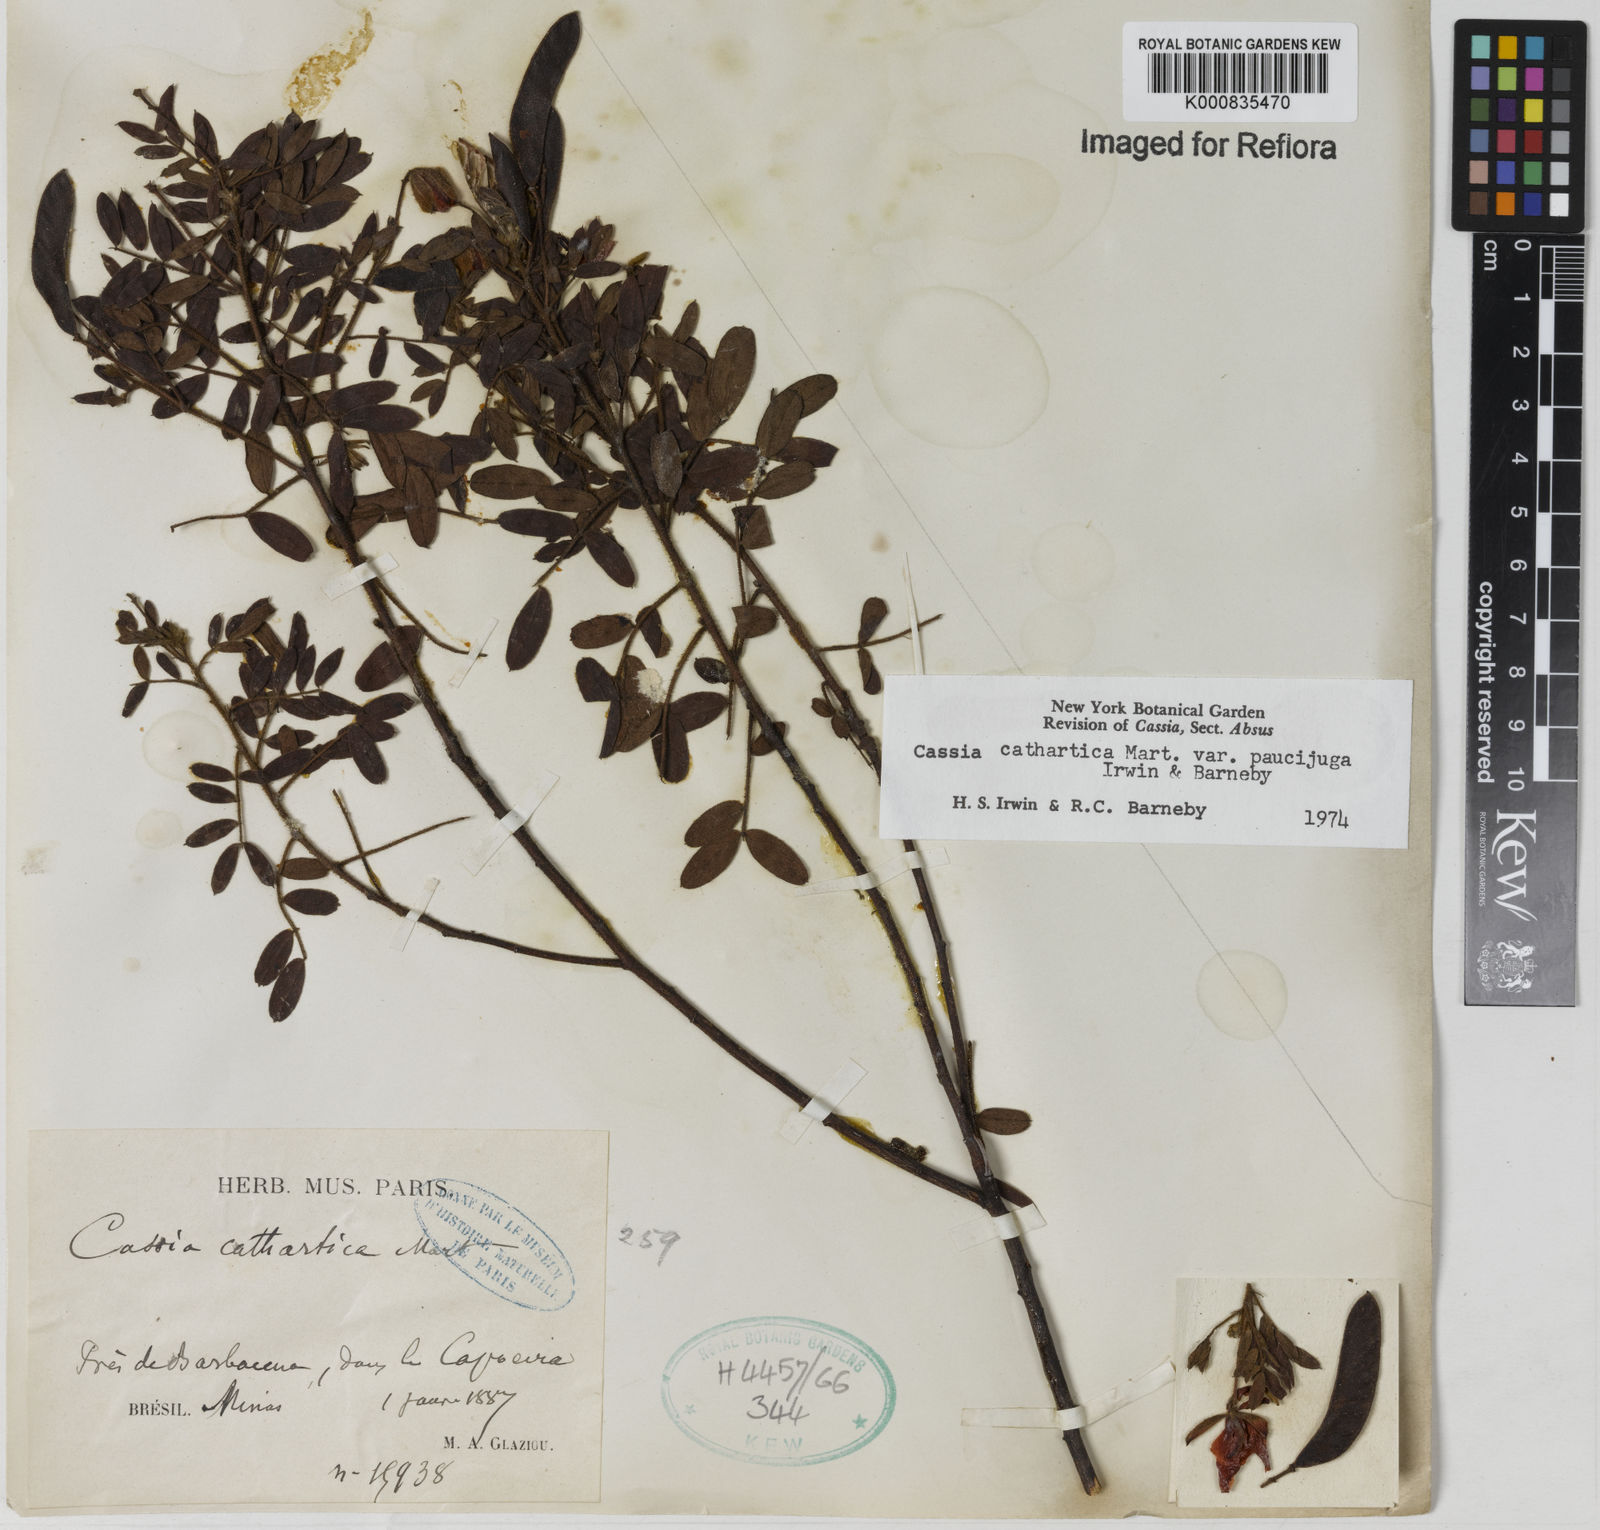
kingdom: Plantae
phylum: Tracheophyta
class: Magnoliopsida
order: Fabales
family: Fabaceae
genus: Chamaecrista
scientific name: Chamaecrista cathartica
